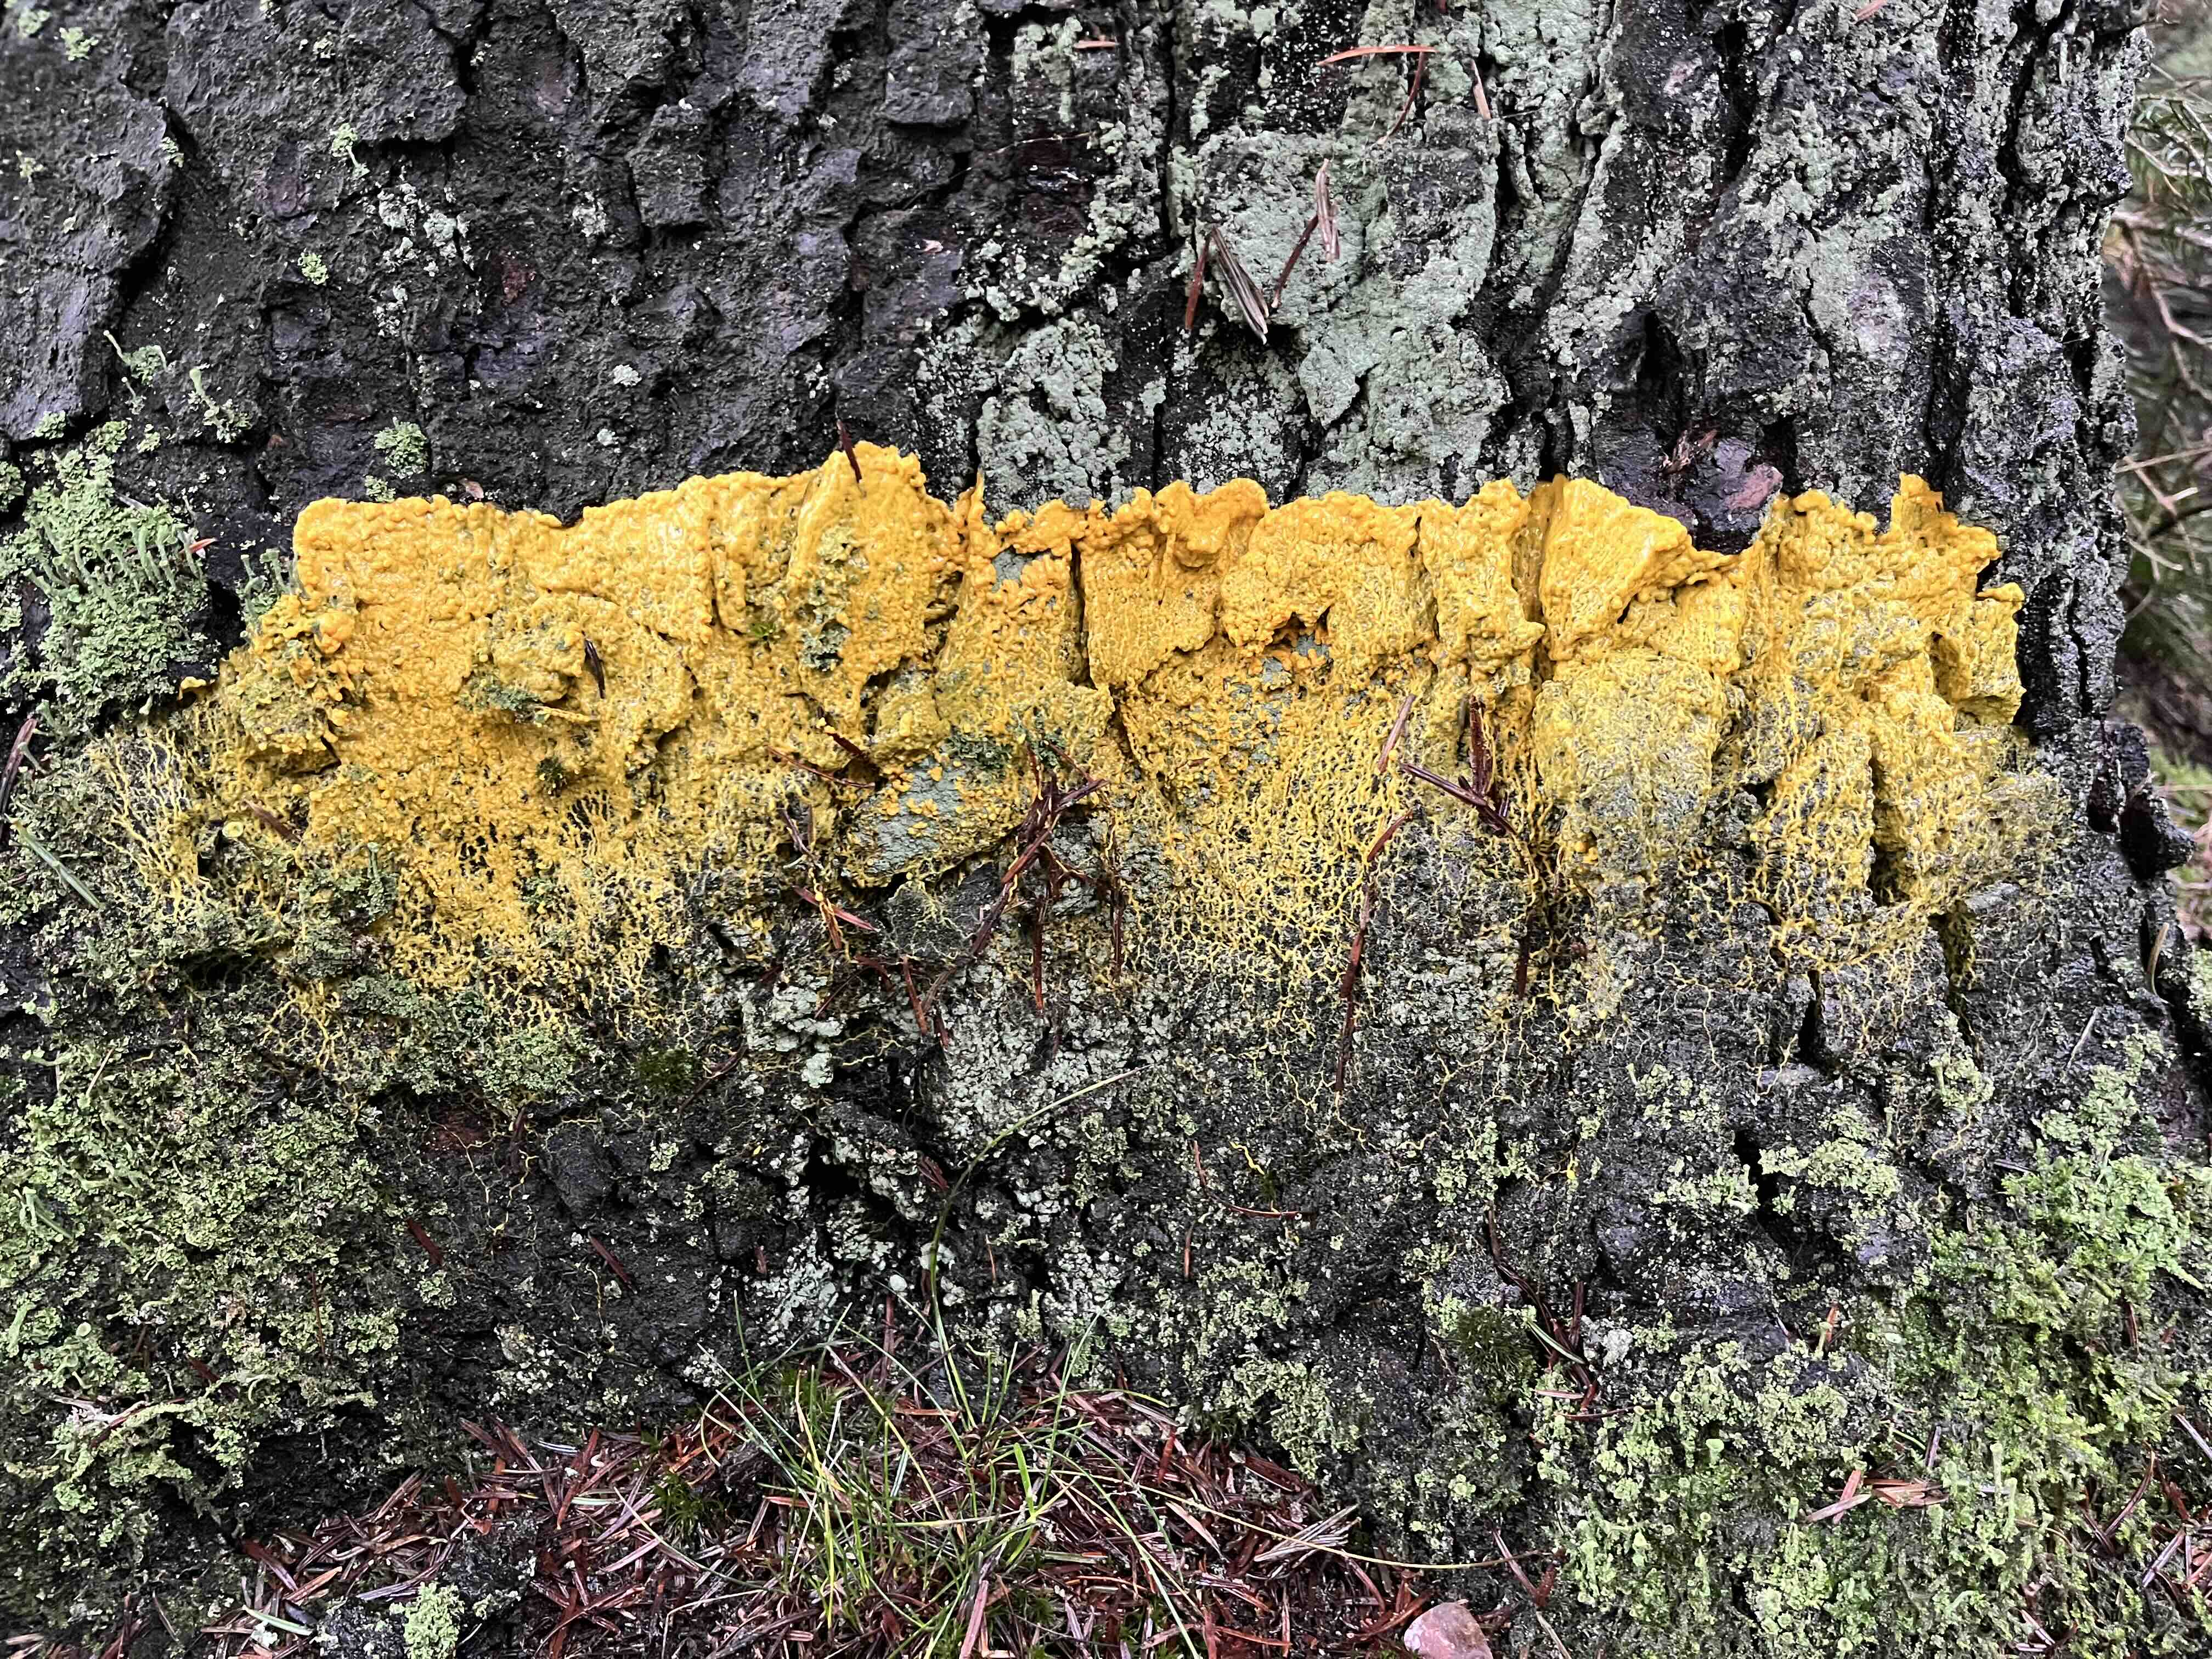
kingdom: Protozoa
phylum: Mycetozoa
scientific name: Mycetozoa
